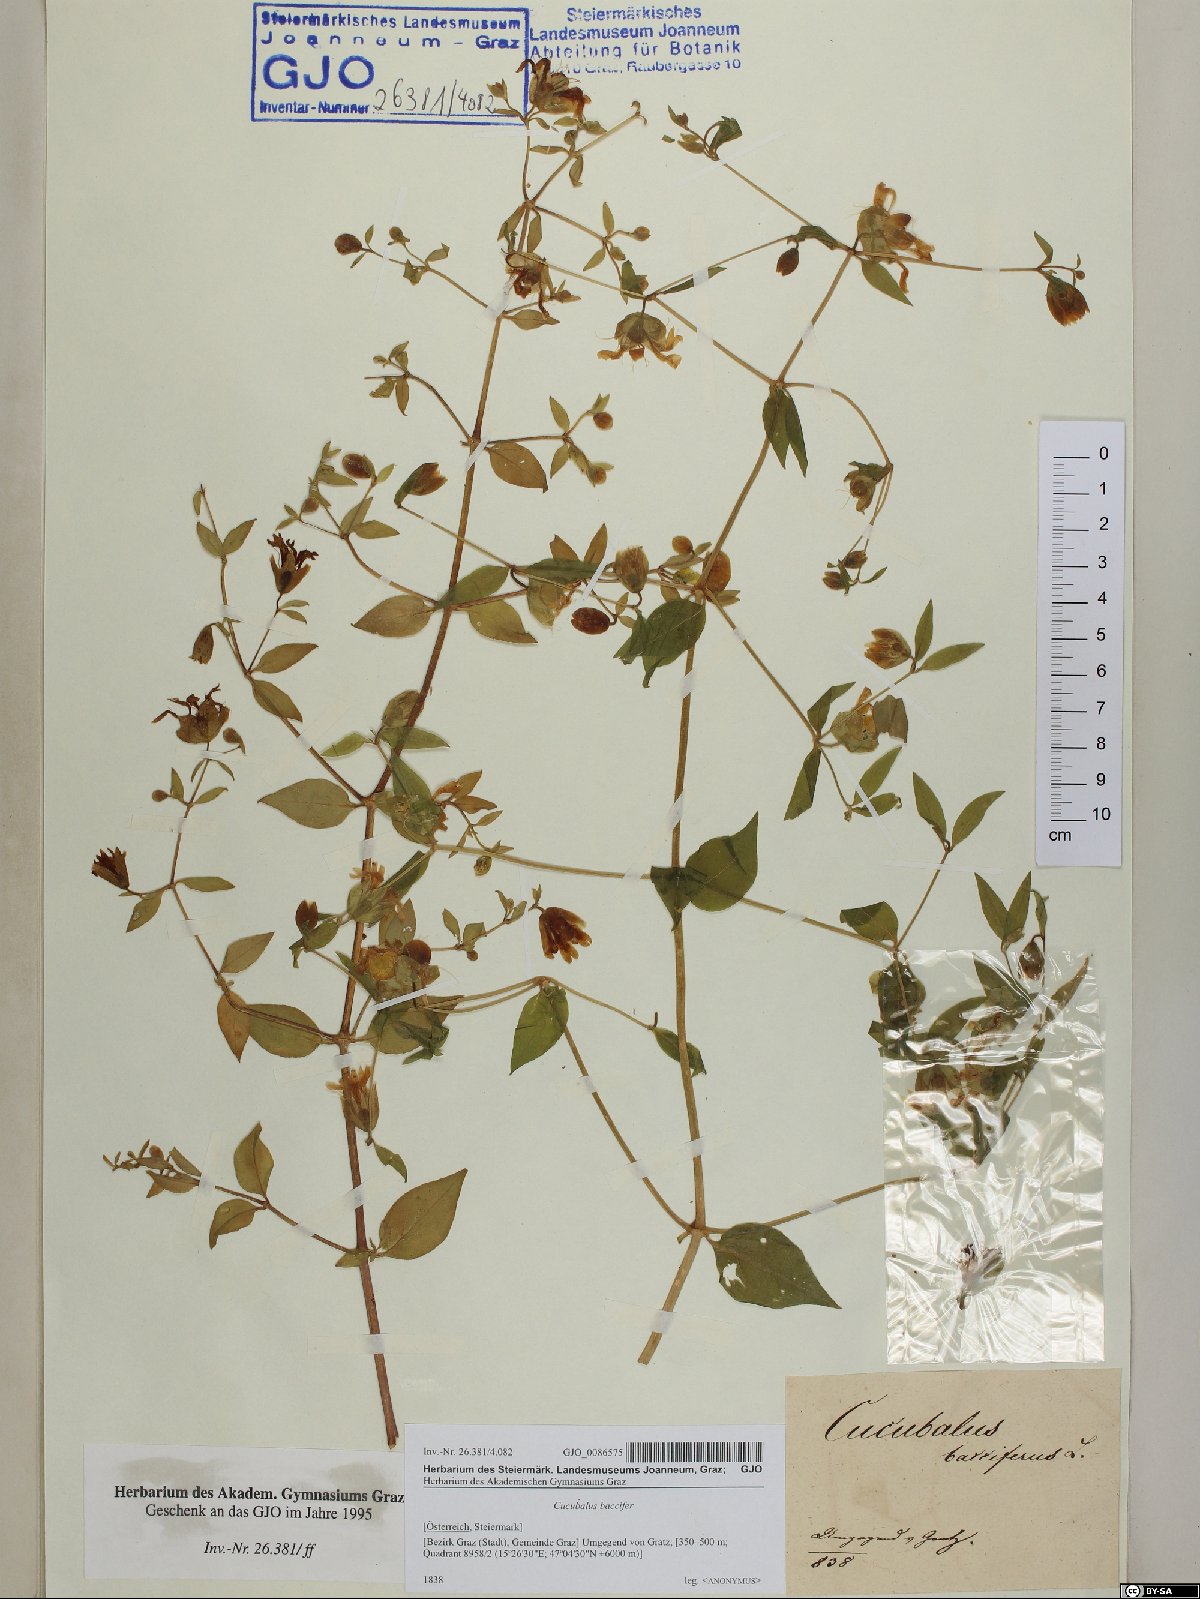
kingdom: Plantae
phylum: Tracheophyta
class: Magnoliopsida
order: Caryophyllales
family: Caryophyllaceae
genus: Silene
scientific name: Silene baccifera
